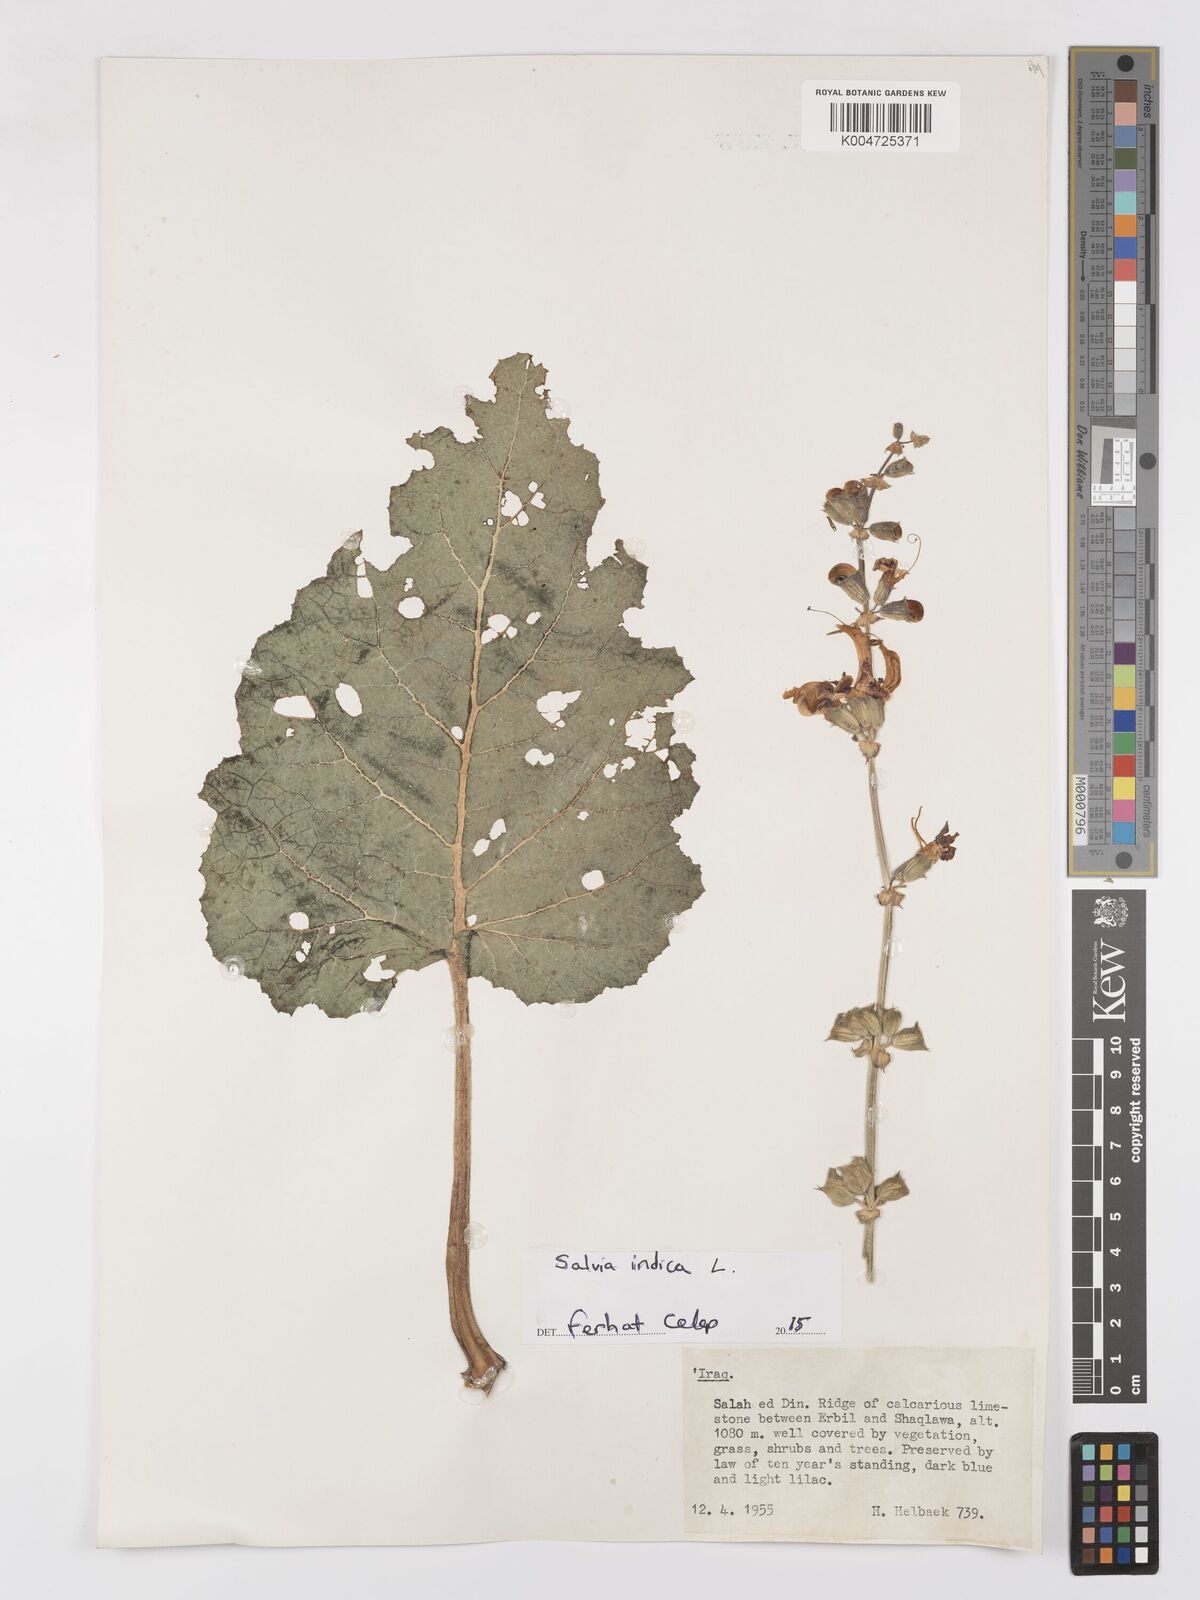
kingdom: Plantae
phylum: Tracheophyta
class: Magnoliopsida
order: Lamiales
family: Lamiaceae
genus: Salvia
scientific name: Salvia indica
